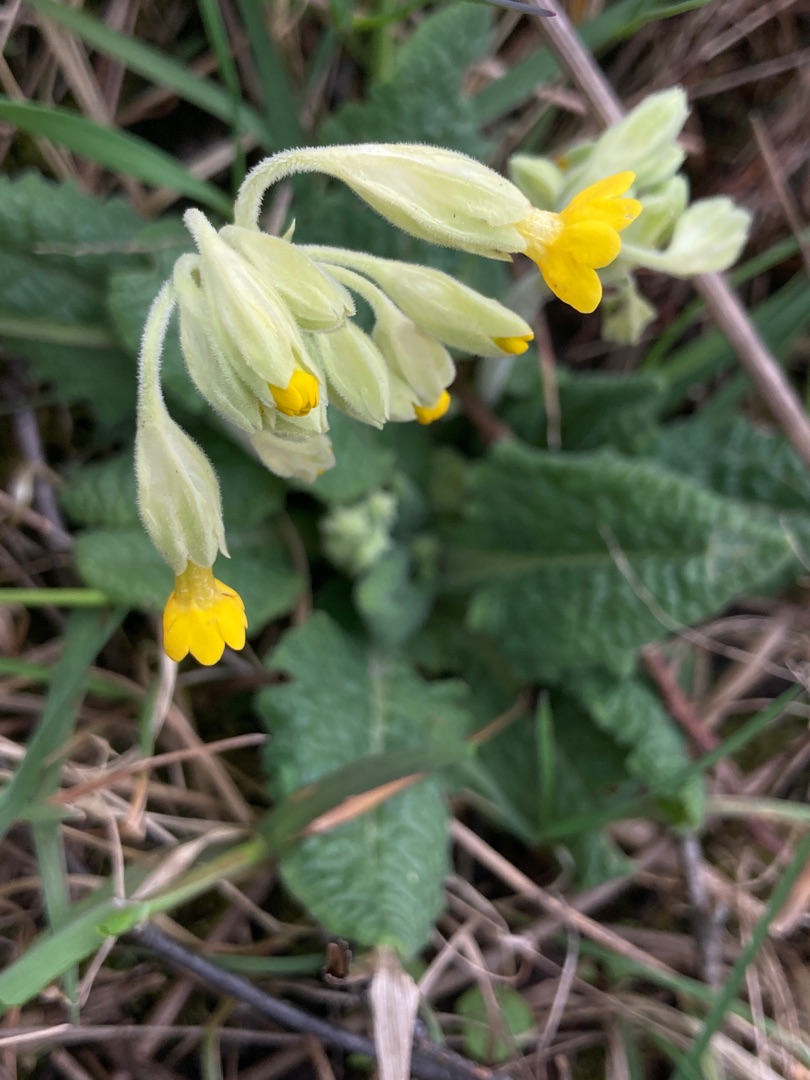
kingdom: Plantae
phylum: Tracheophyta
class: Magnoliopsida
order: Ericales
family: Primulaceae
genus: Primula
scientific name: Primula veris
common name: Hulkravet kodriver
